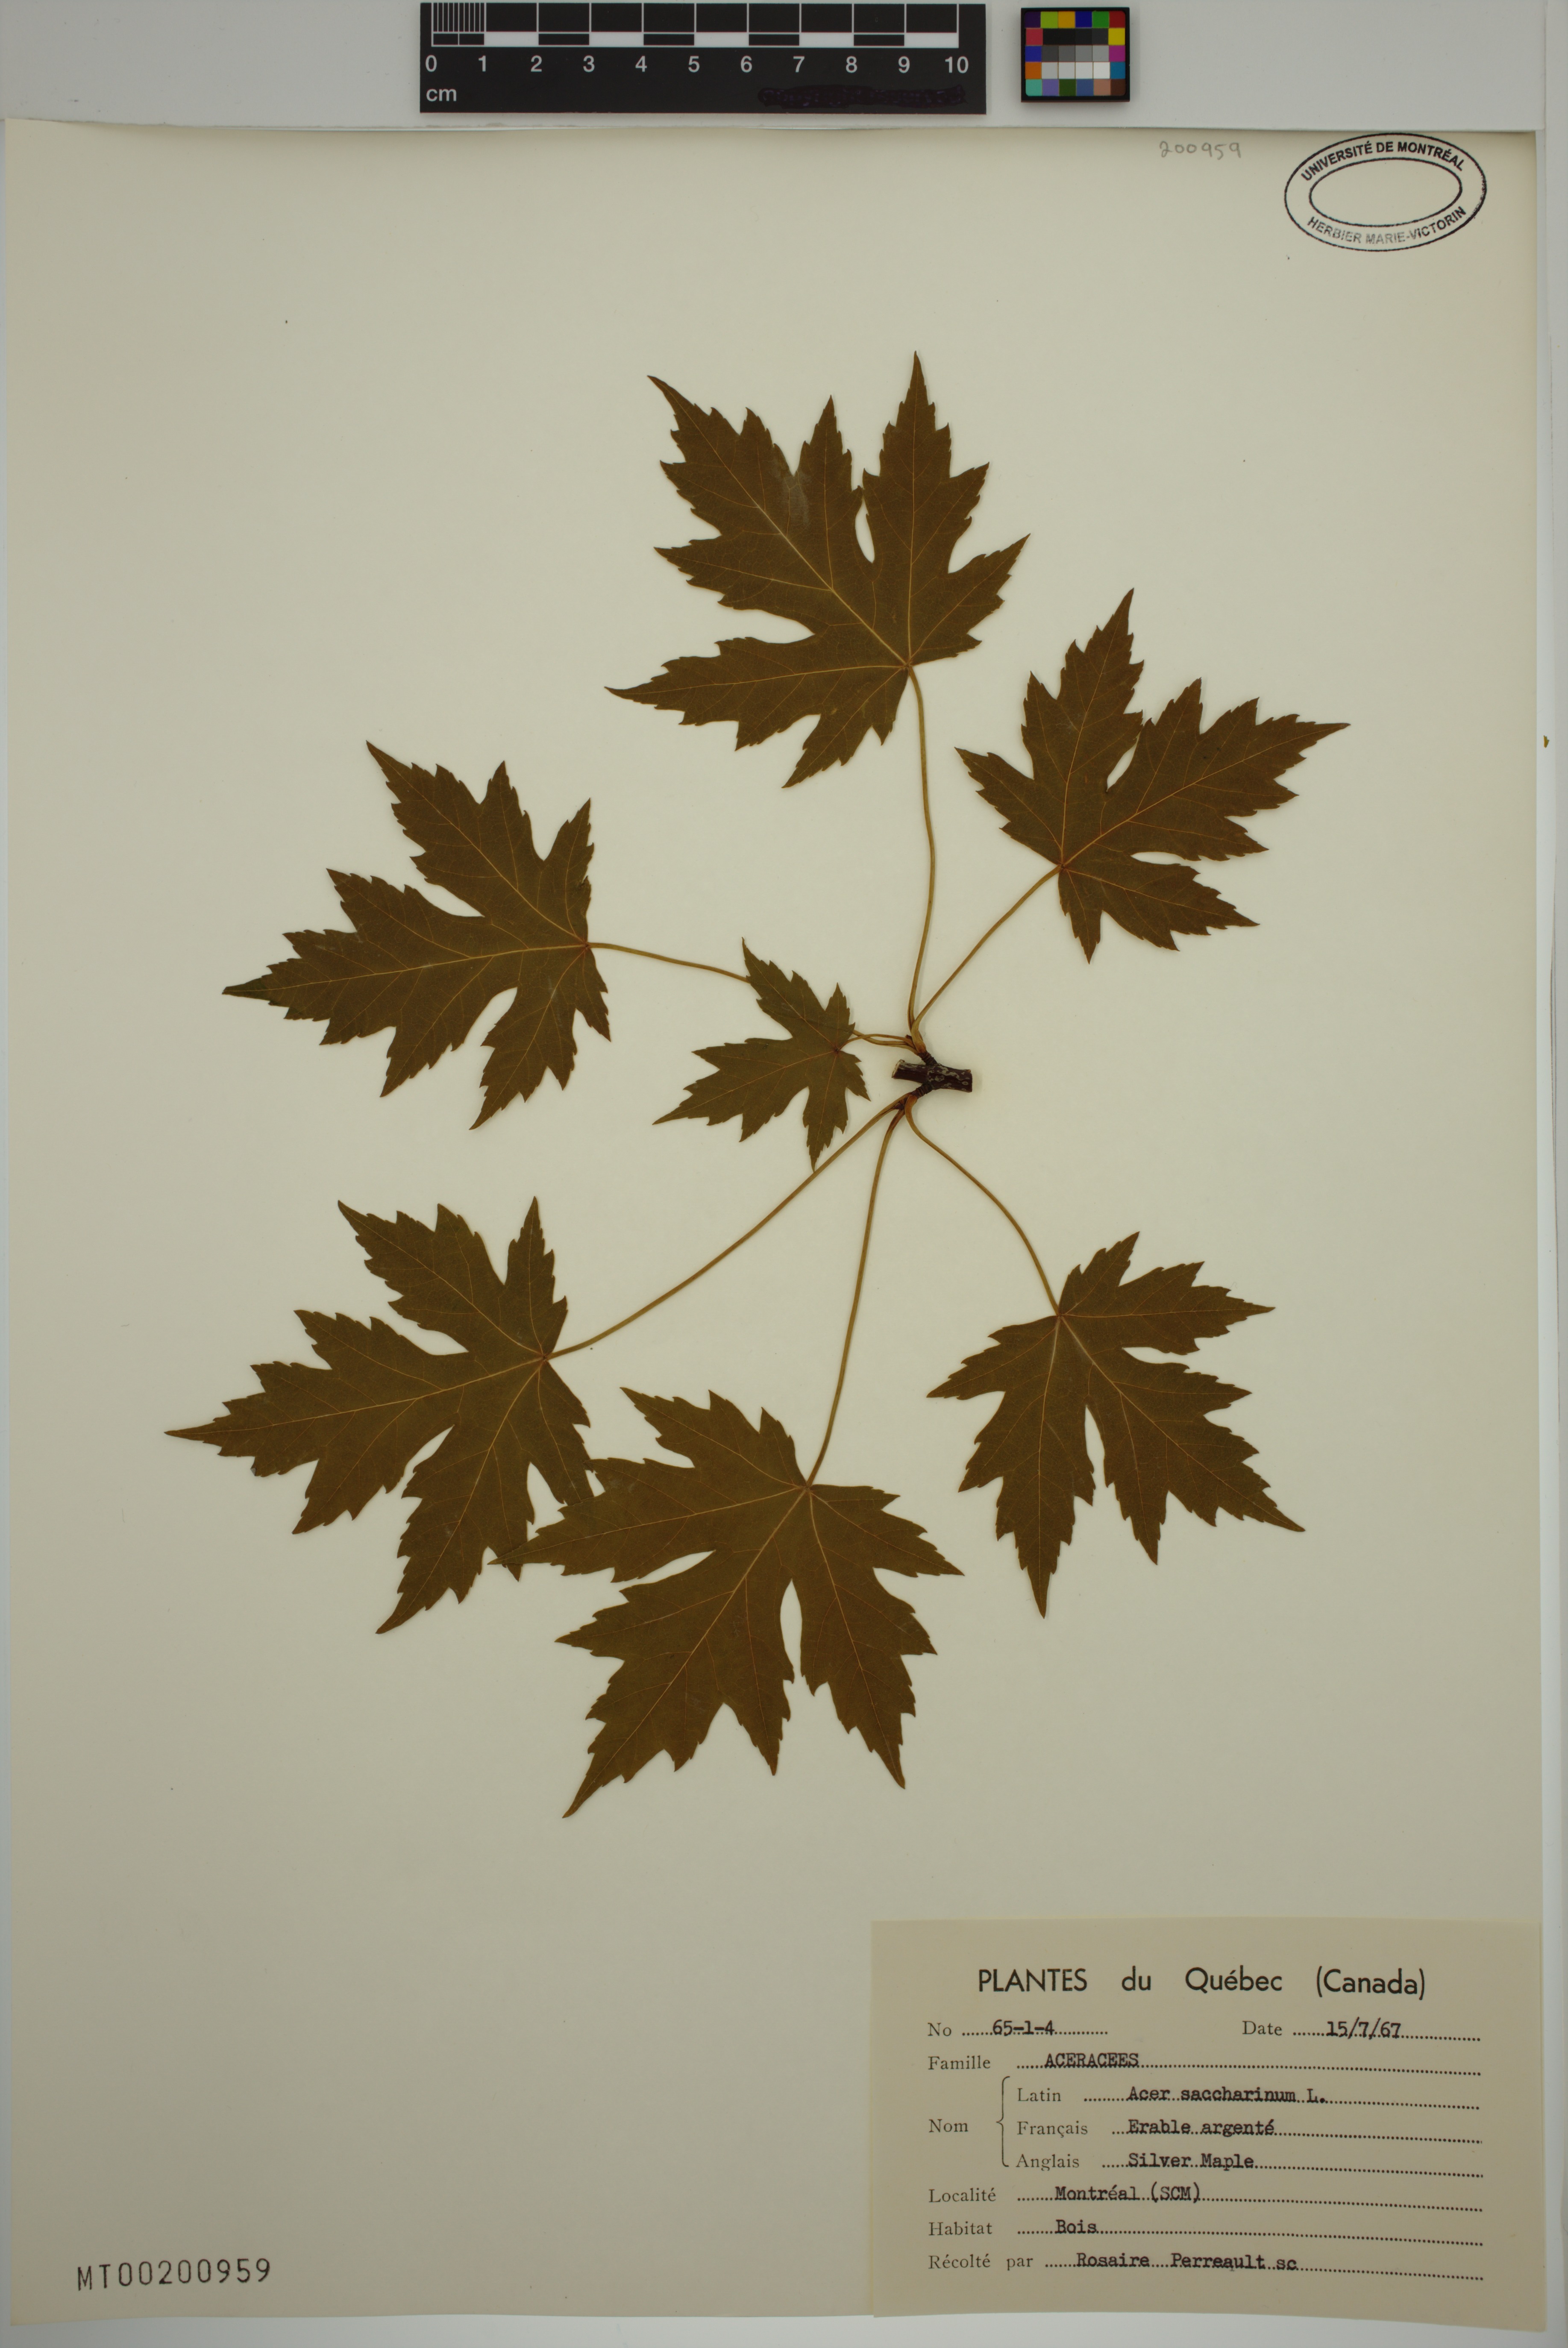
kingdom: Plantae
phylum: Tracheophyta
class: Magnoliopsida
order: Sapindales
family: Sapindaceae
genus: Acer
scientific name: Acer saccharinum
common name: Silver maple
